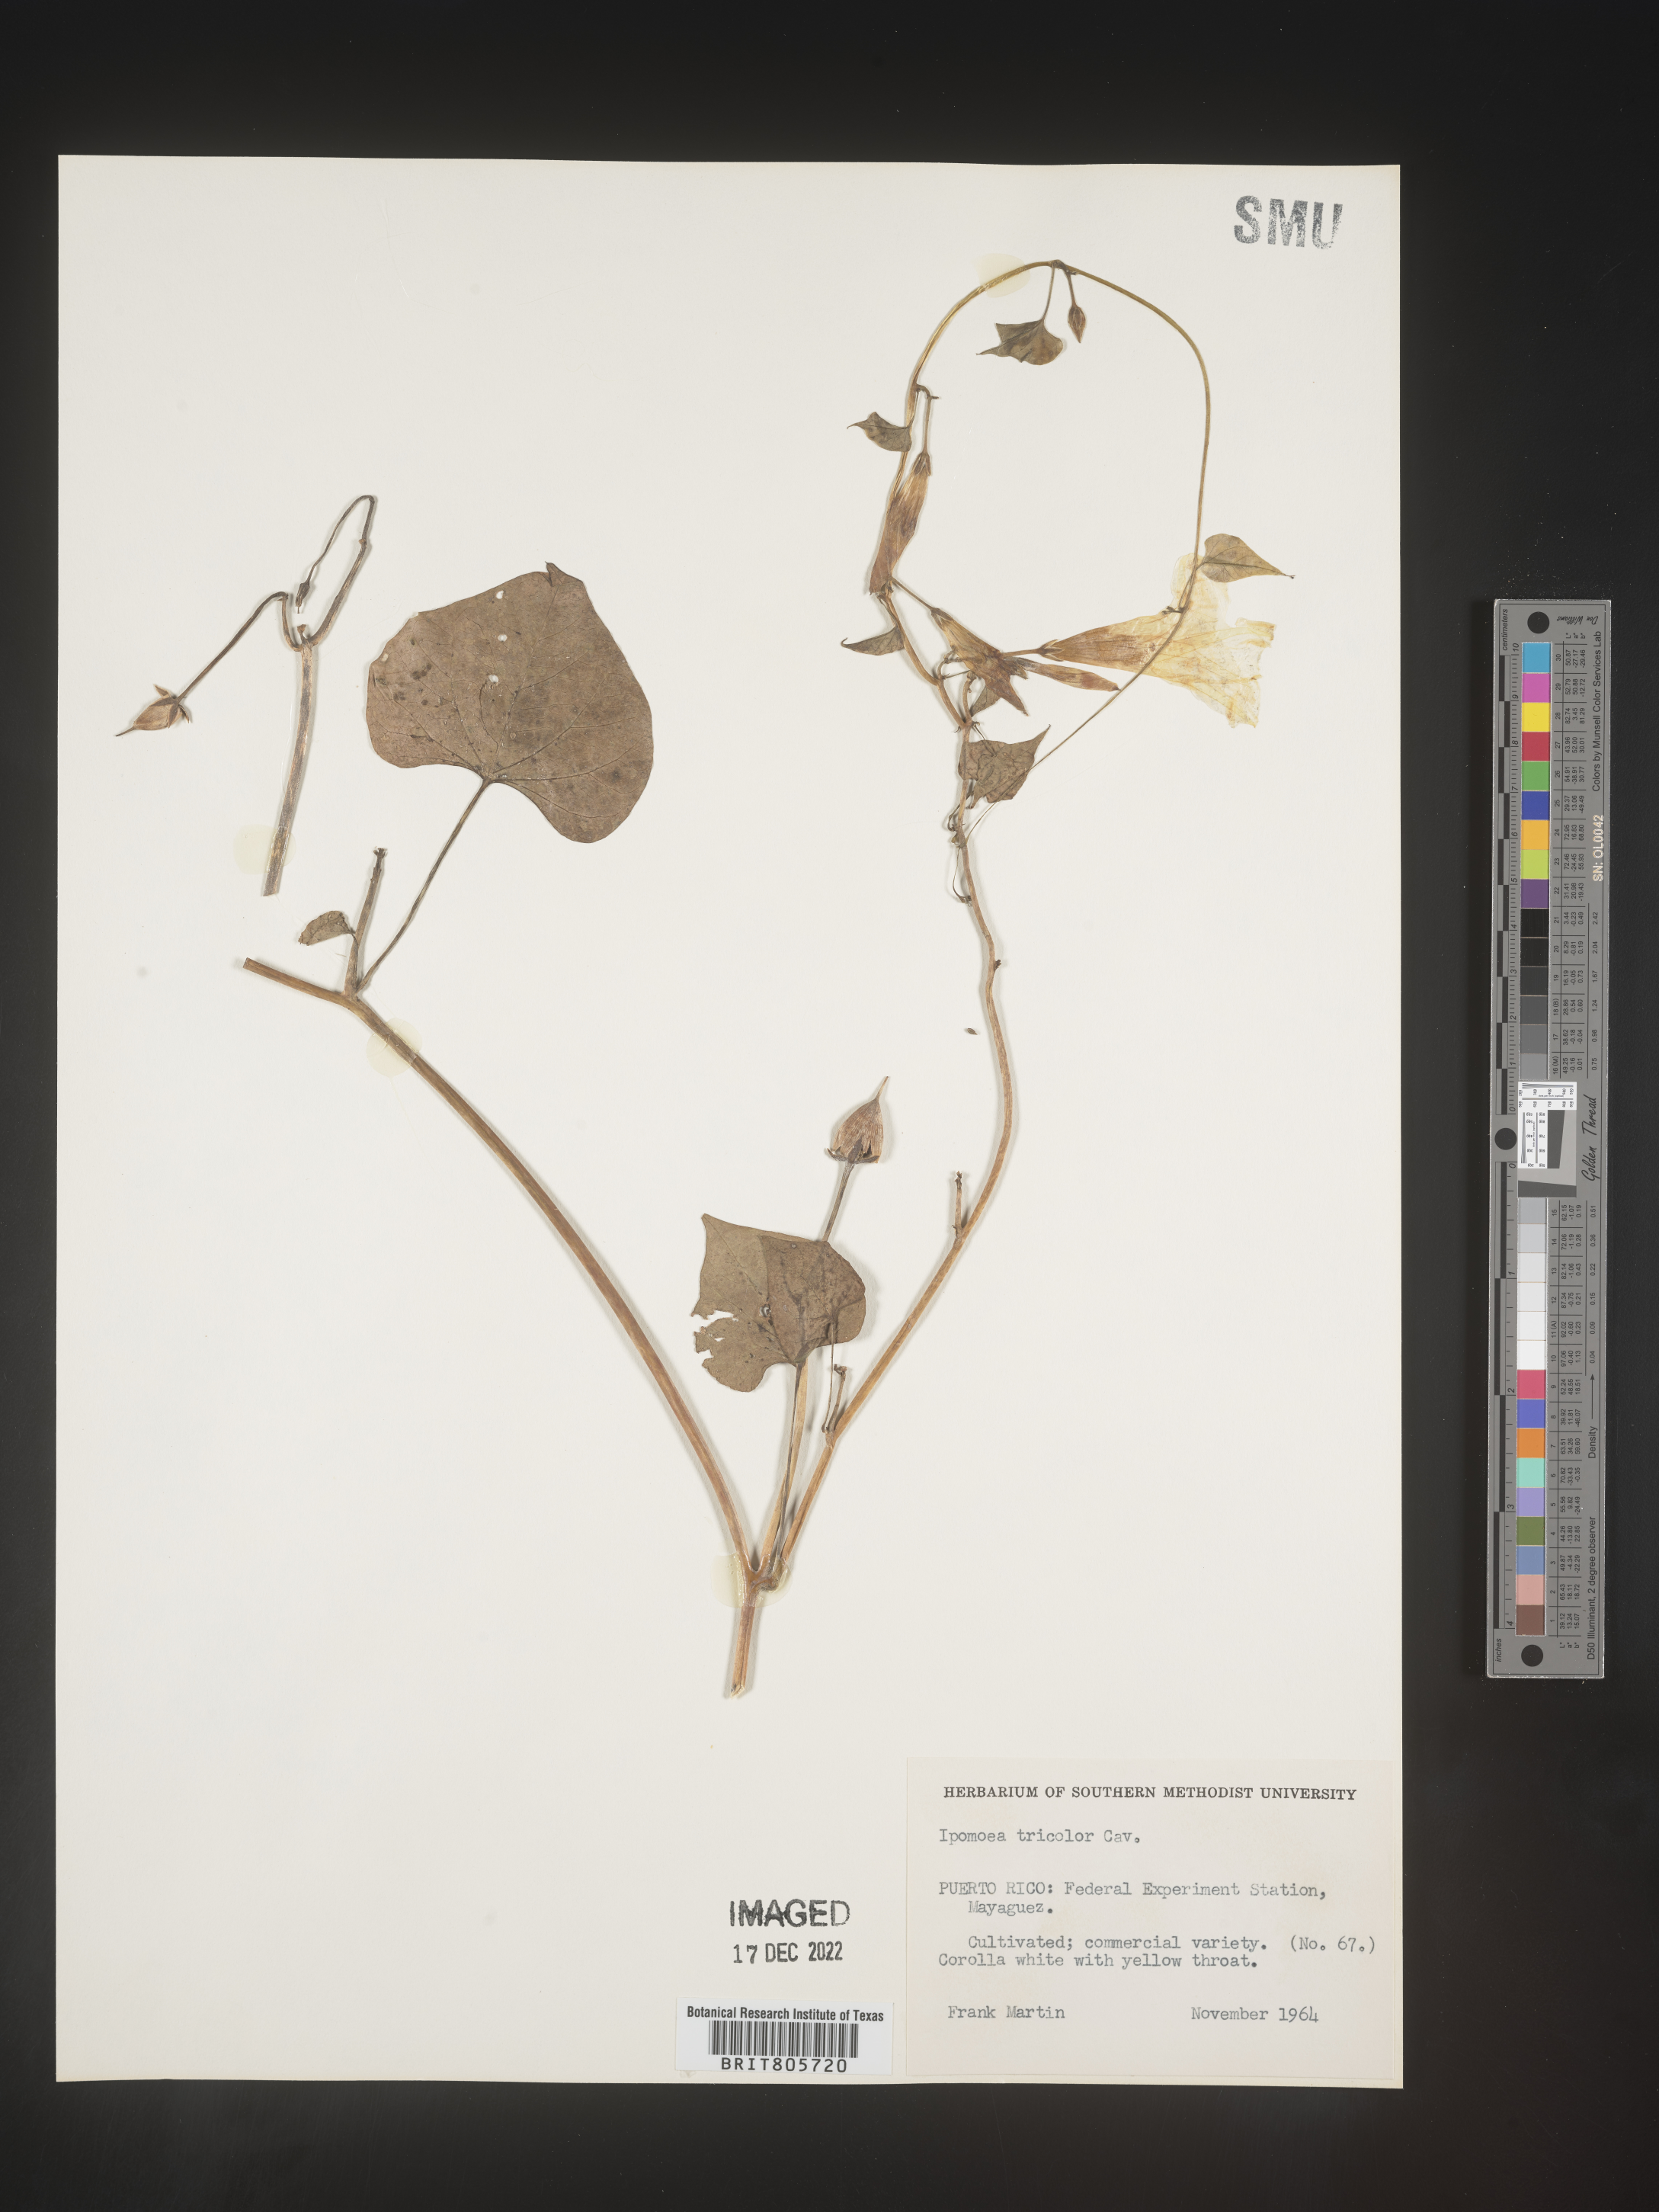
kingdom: Plantae
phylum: Tracheophyta
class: Magnoliopsida
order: Solanales
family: Convolvulaceae
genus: Ipomoea
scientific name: Ipomoea
